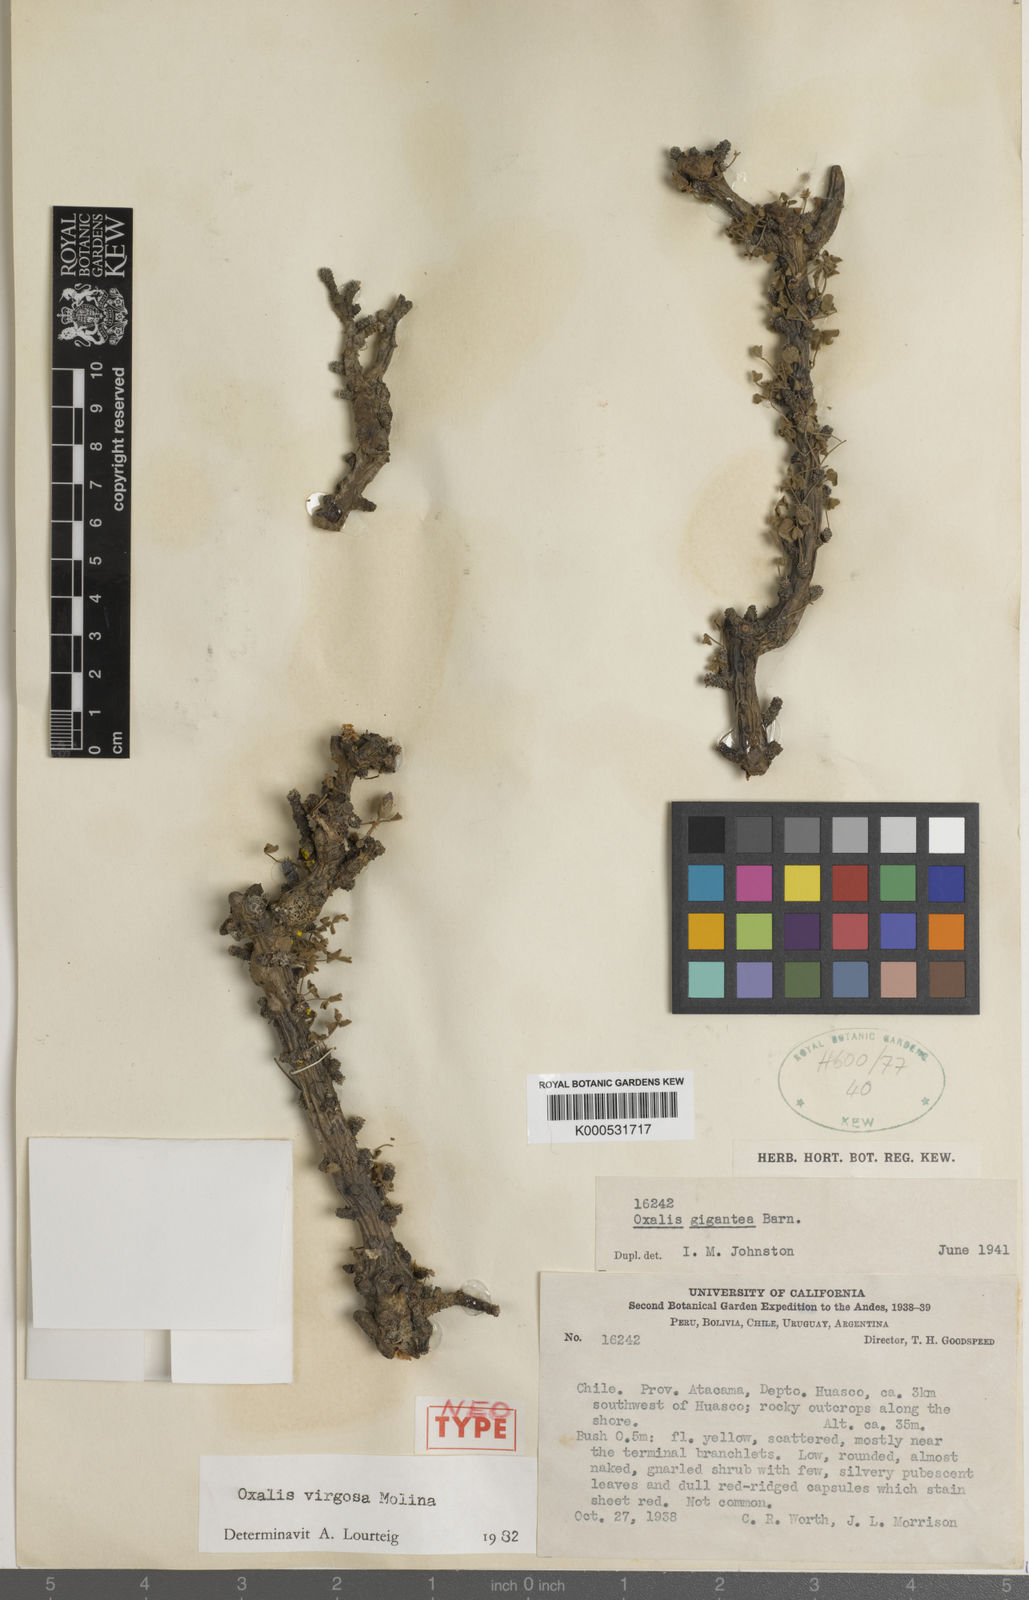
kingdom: Plantae
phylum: Tracheophyta
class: Magnoliopsida
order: Oxalidales
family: Oxalidaceae
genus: Oxalis
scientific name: Oxalis virgosa
